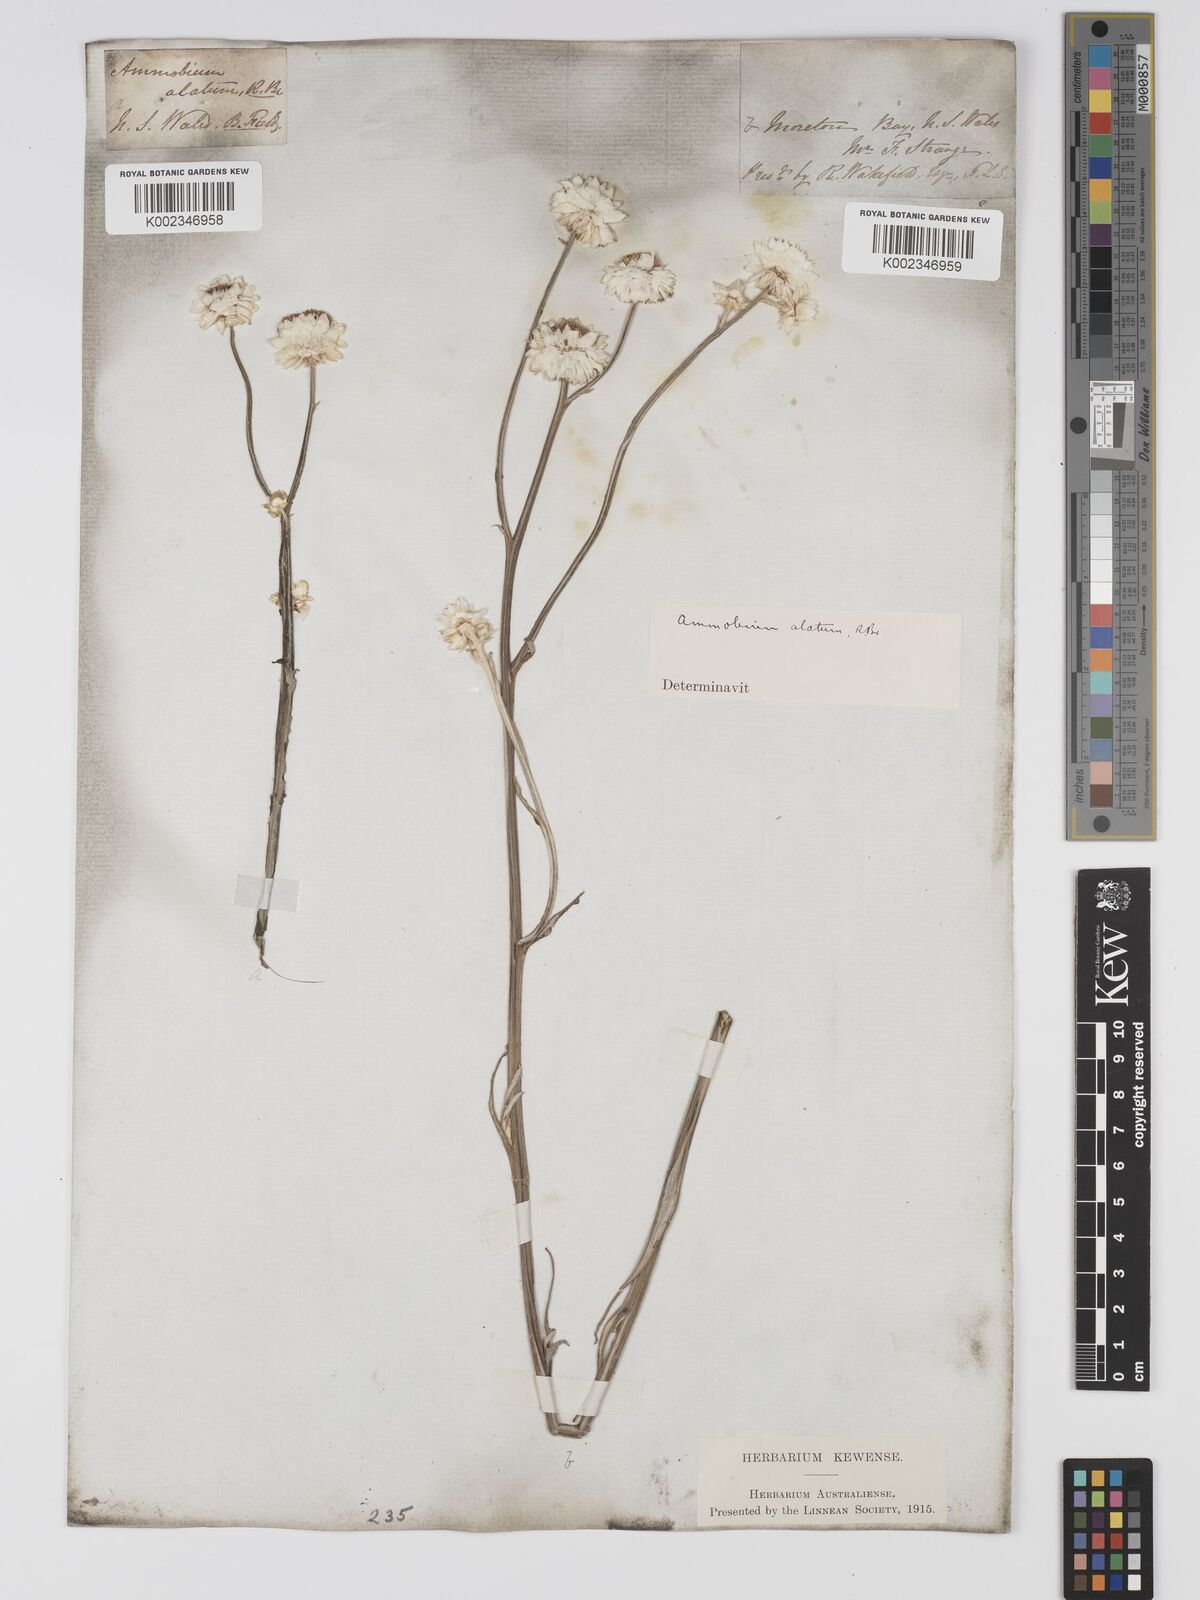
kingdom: Plantae
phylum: Tracheophyta
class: Magnoliopsida
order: Asterales
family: Asteraceae
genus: Ammobium
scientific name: Ammobium alatum
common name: Winged everlasting
